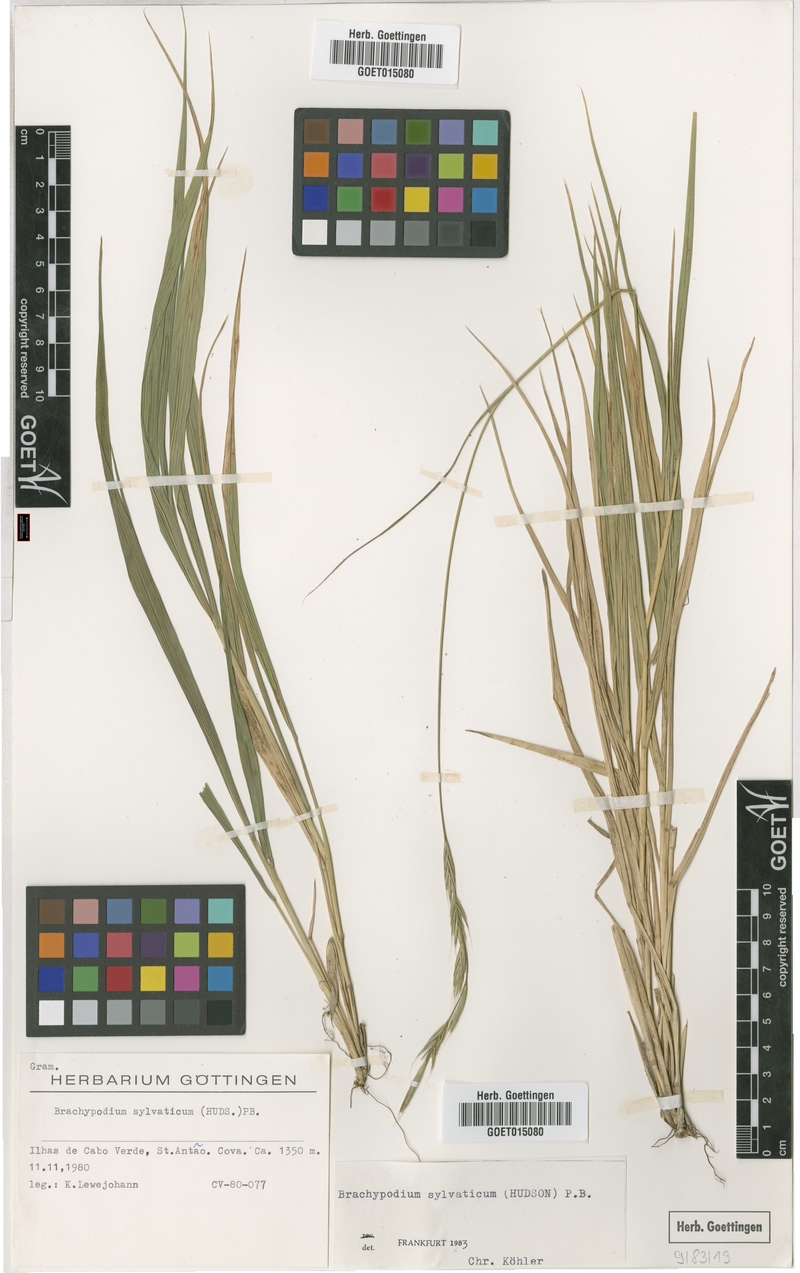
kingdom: Plantae
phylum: Tracheophyta
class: Liliopsida
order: Poales
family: Poaceae
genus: Brachypodium
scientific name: Brachypodium sylvaticum
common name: False-brome
